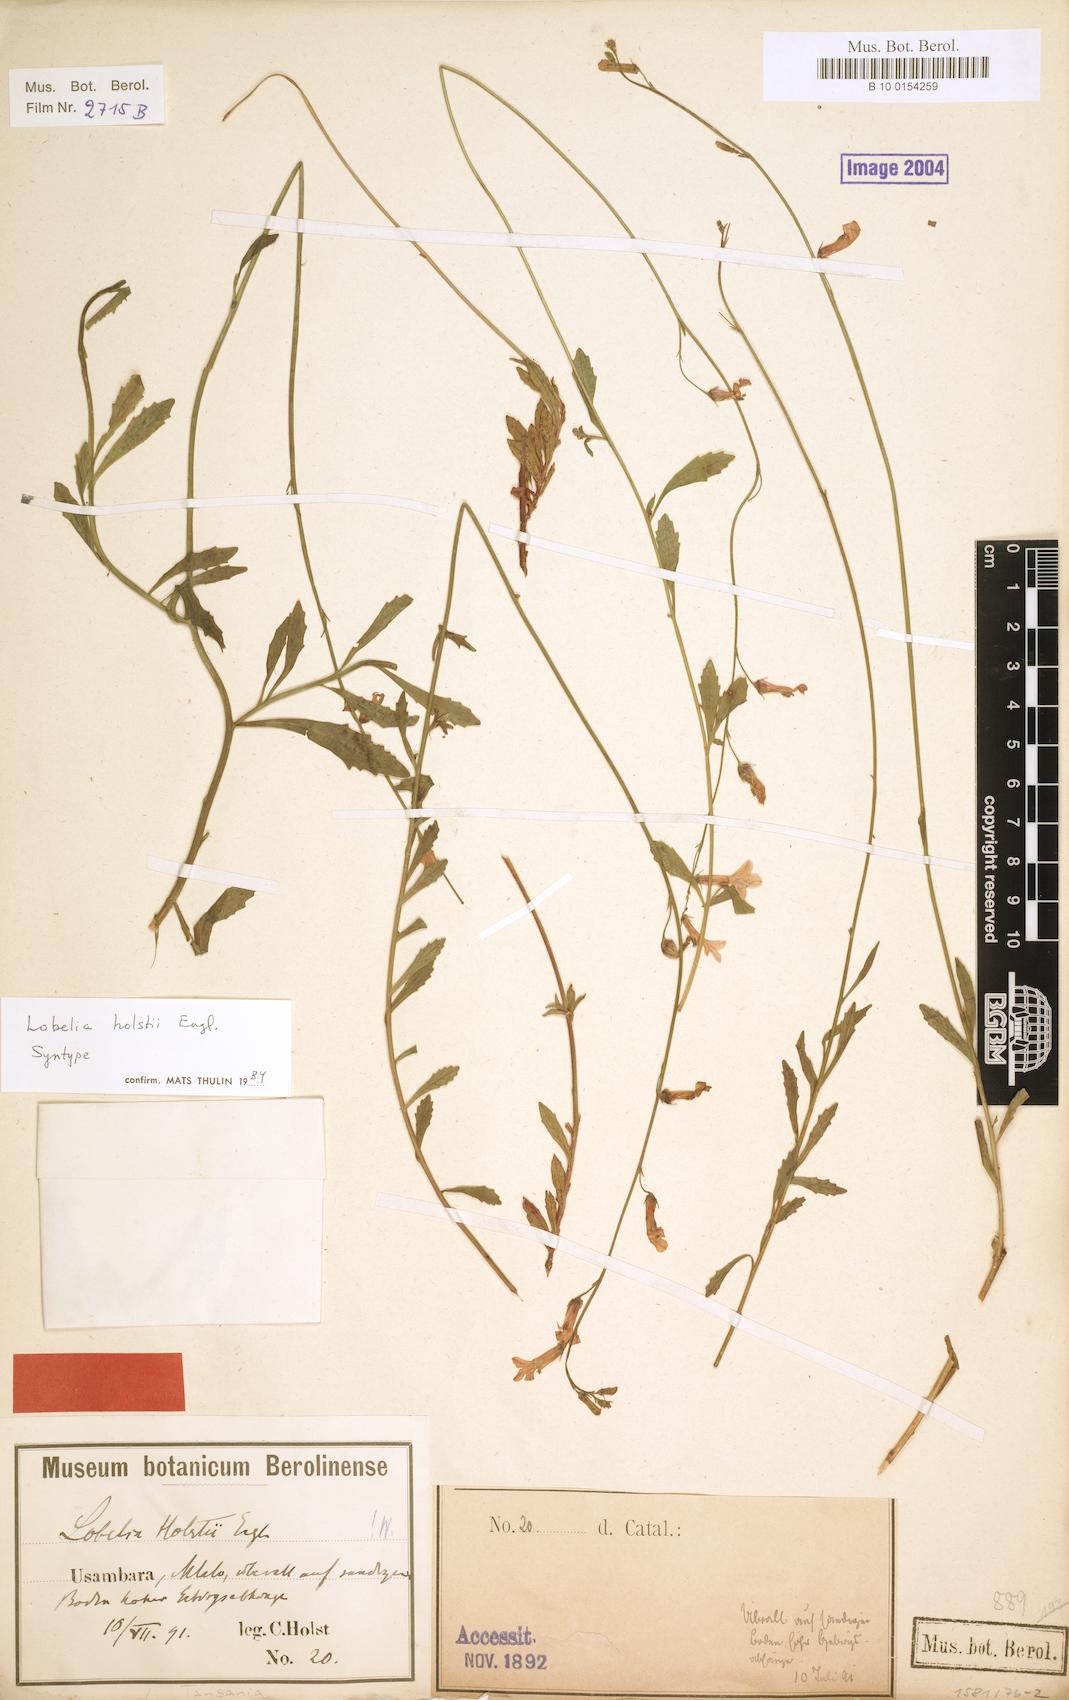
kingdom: Plantae
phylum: Tracheophyta
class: Magnoliopsida
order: Asterales
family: Campanulaceae
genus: Lobelia
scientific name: Lobelia holstii
